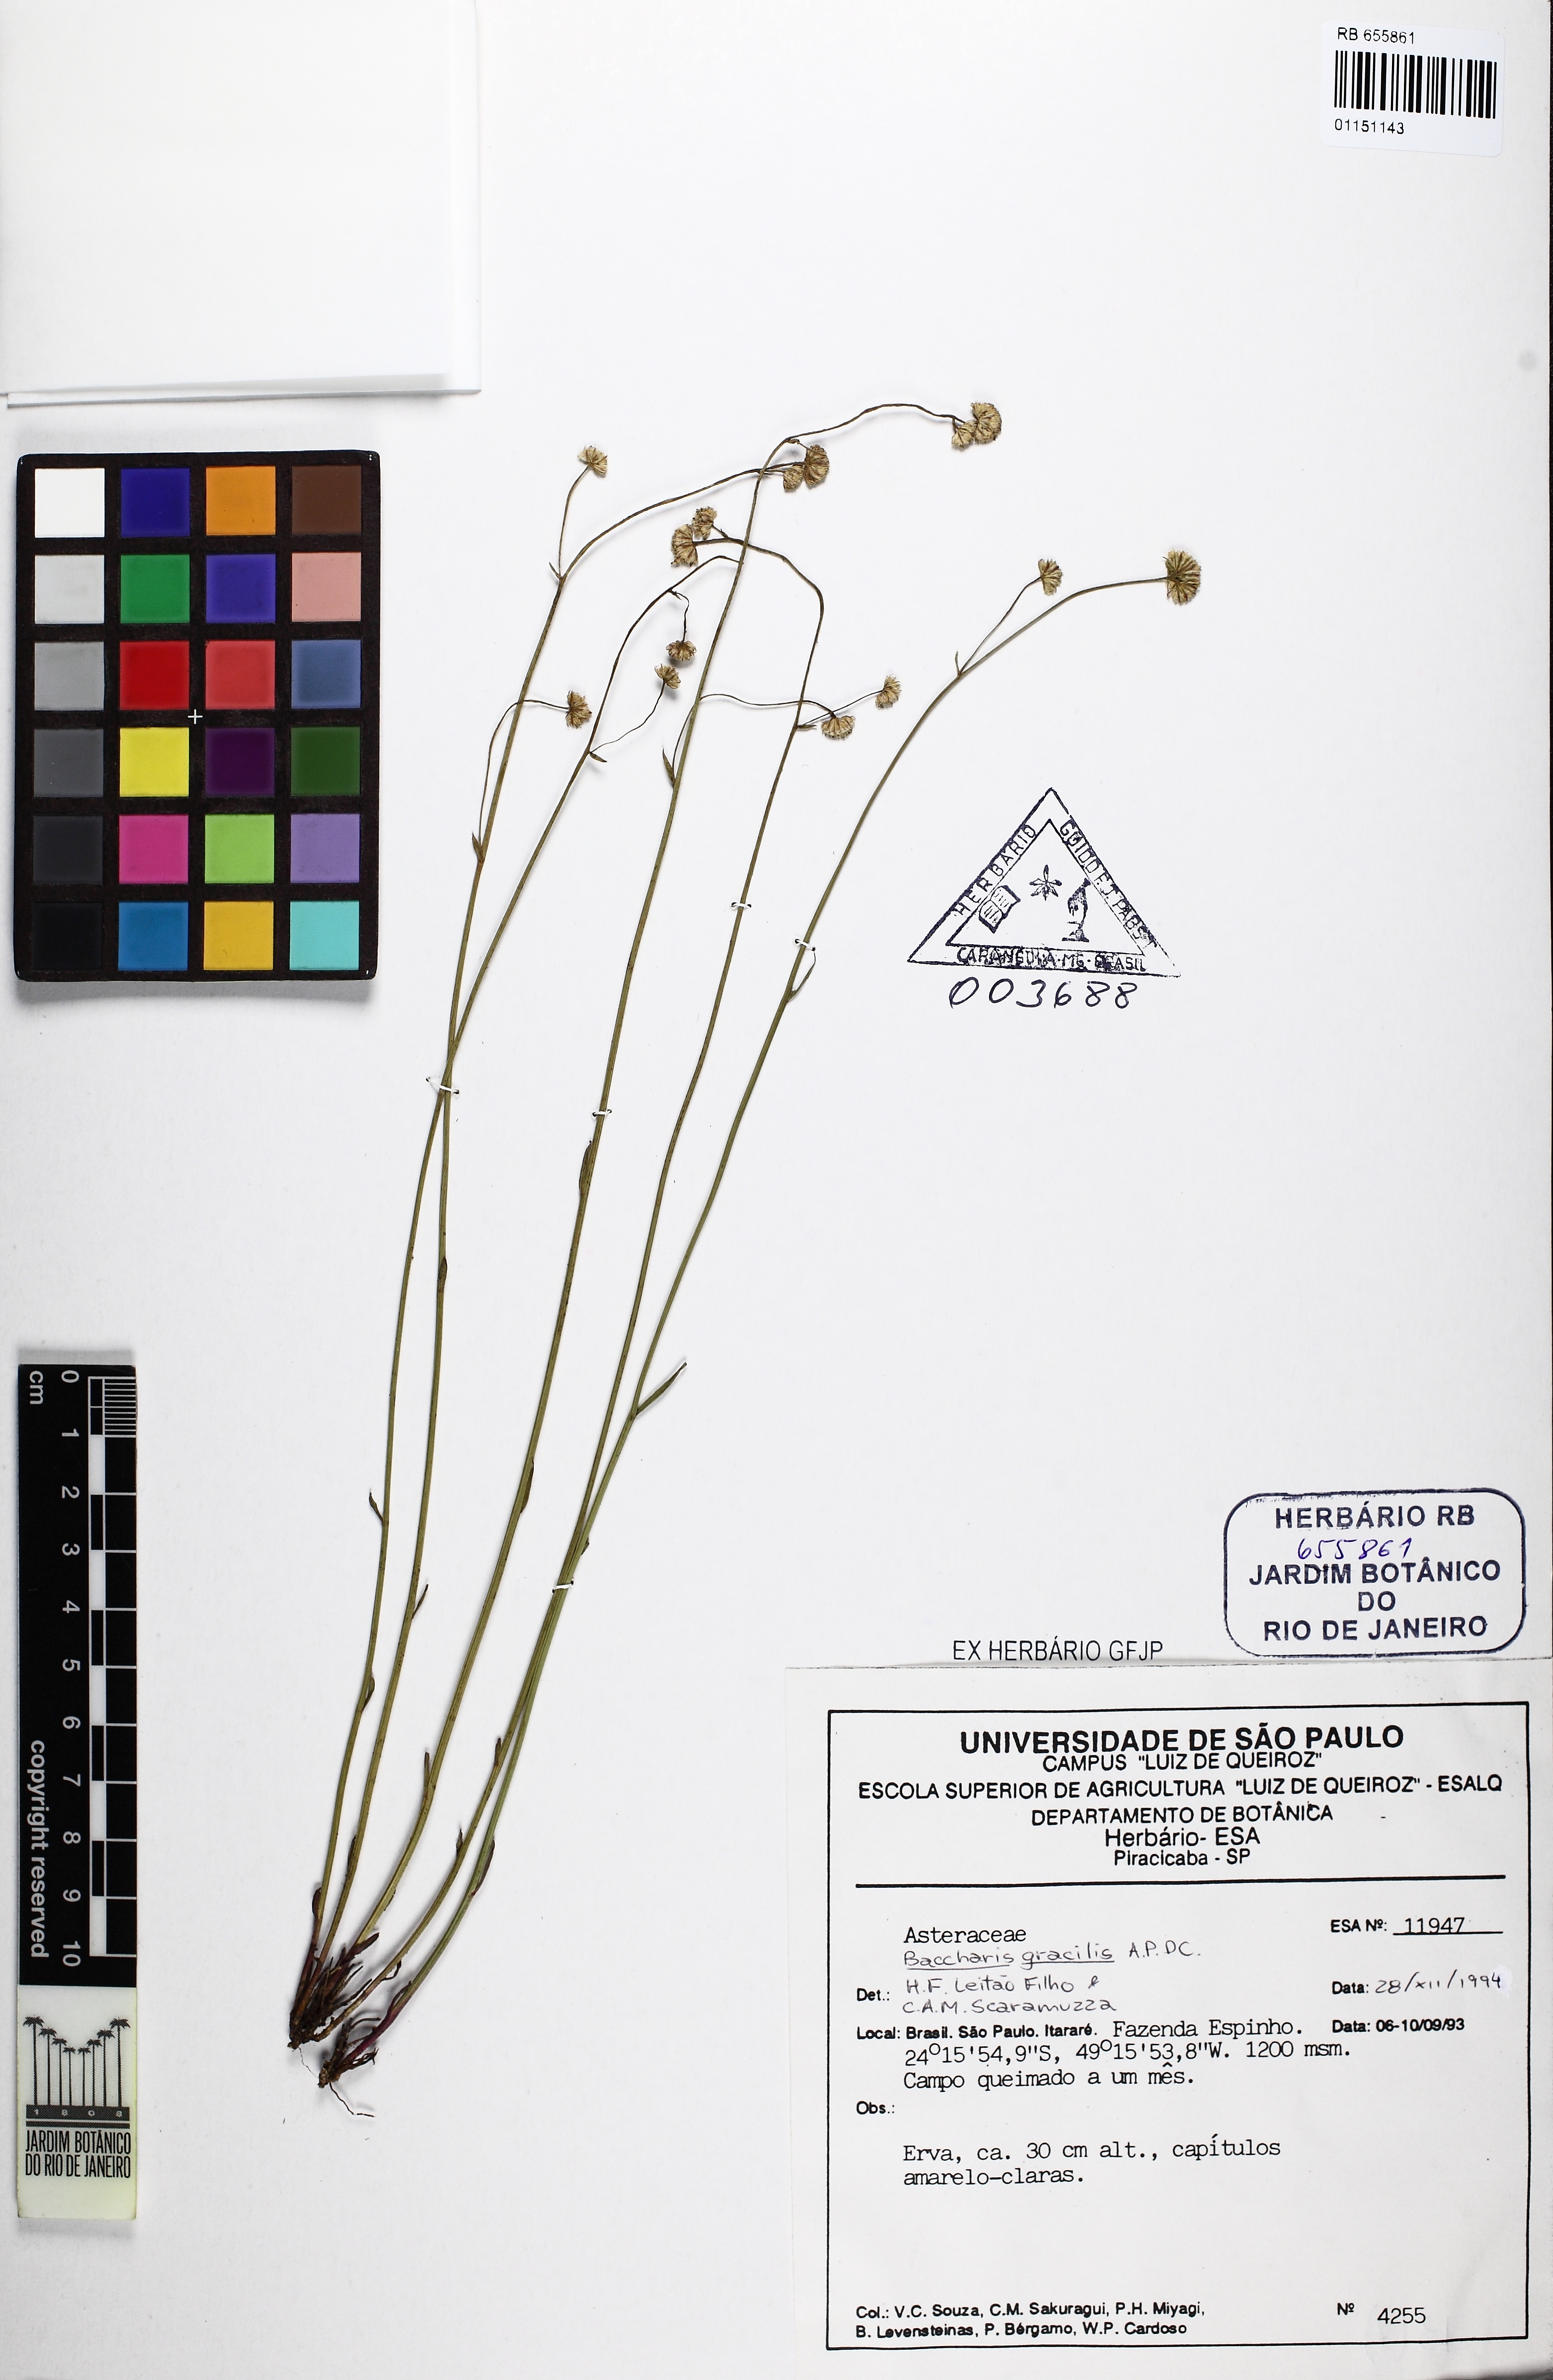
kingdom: Plantae
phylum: Tracheophyta
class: Magnoliopsida
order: Asterales
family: Asteraceae
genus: Baccharis
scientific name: Baccharis gracilis
